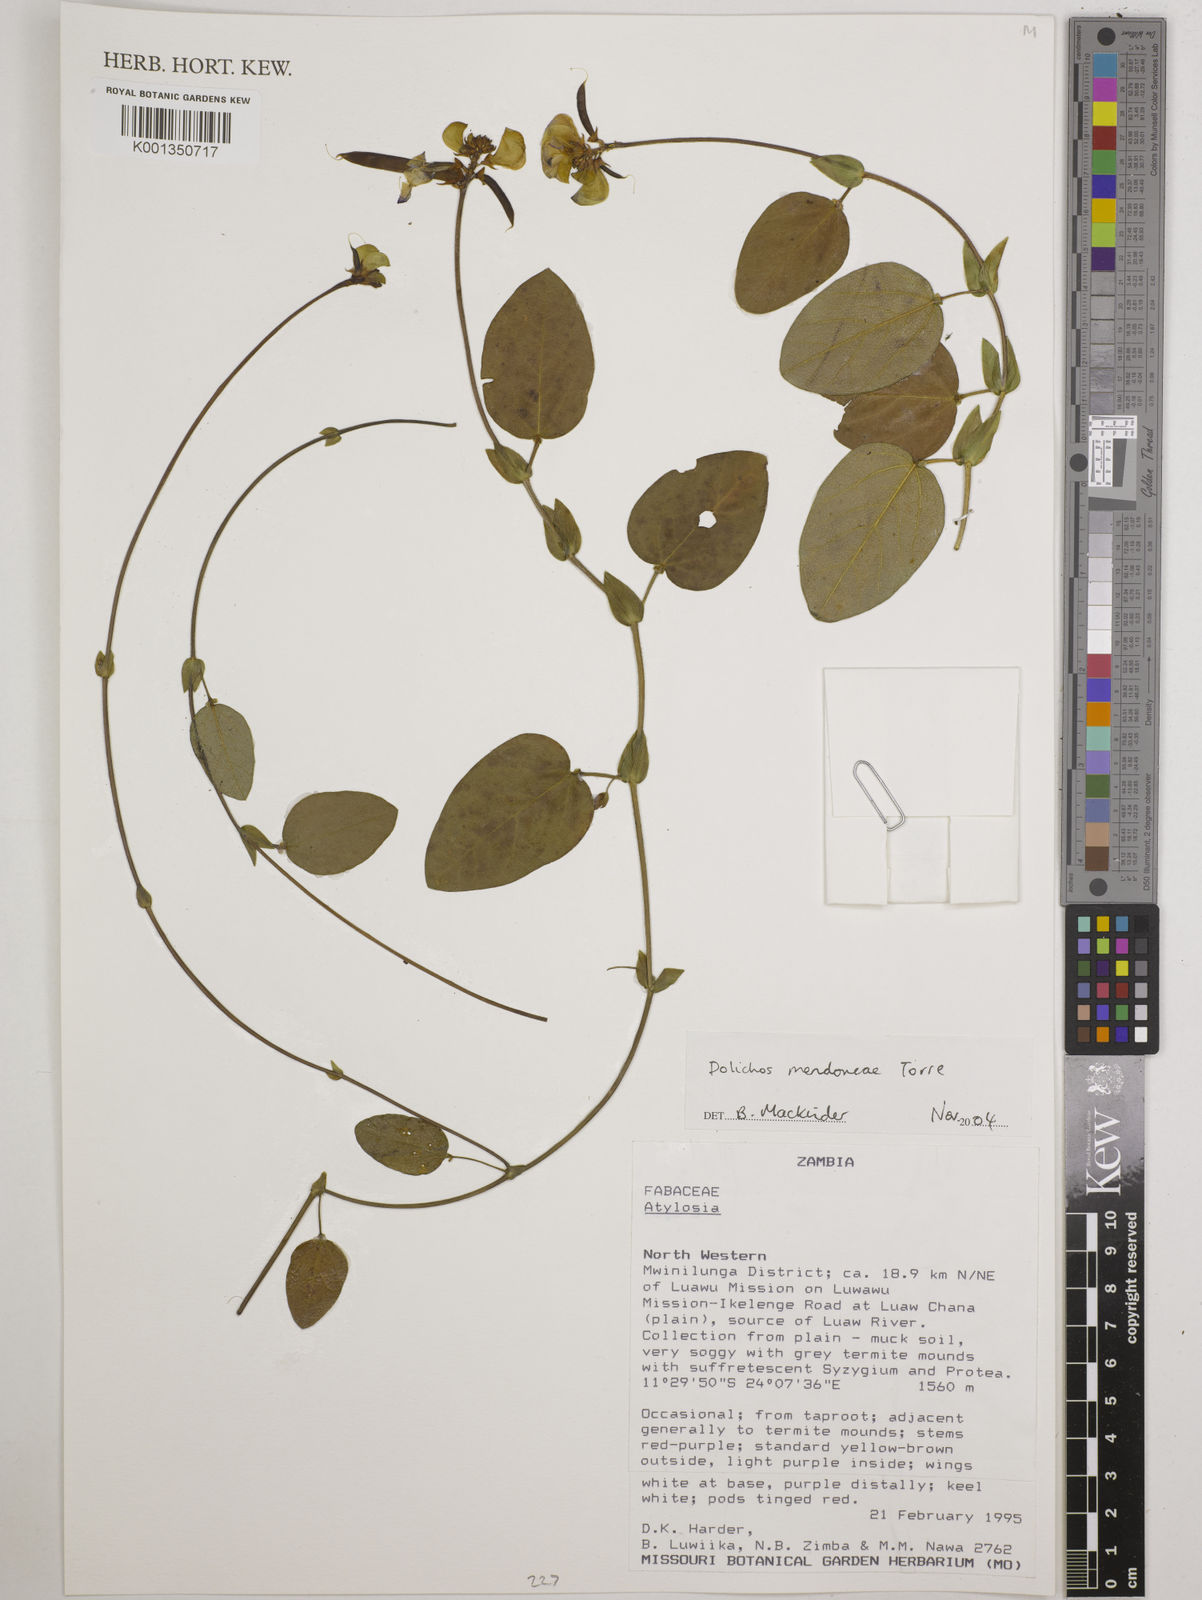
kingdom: Plantae
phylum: Tracheophyta
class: Magnoliopsida
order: Fabales
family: Fabaceae
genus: Dolichos
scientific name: Dolichos mendoncae
